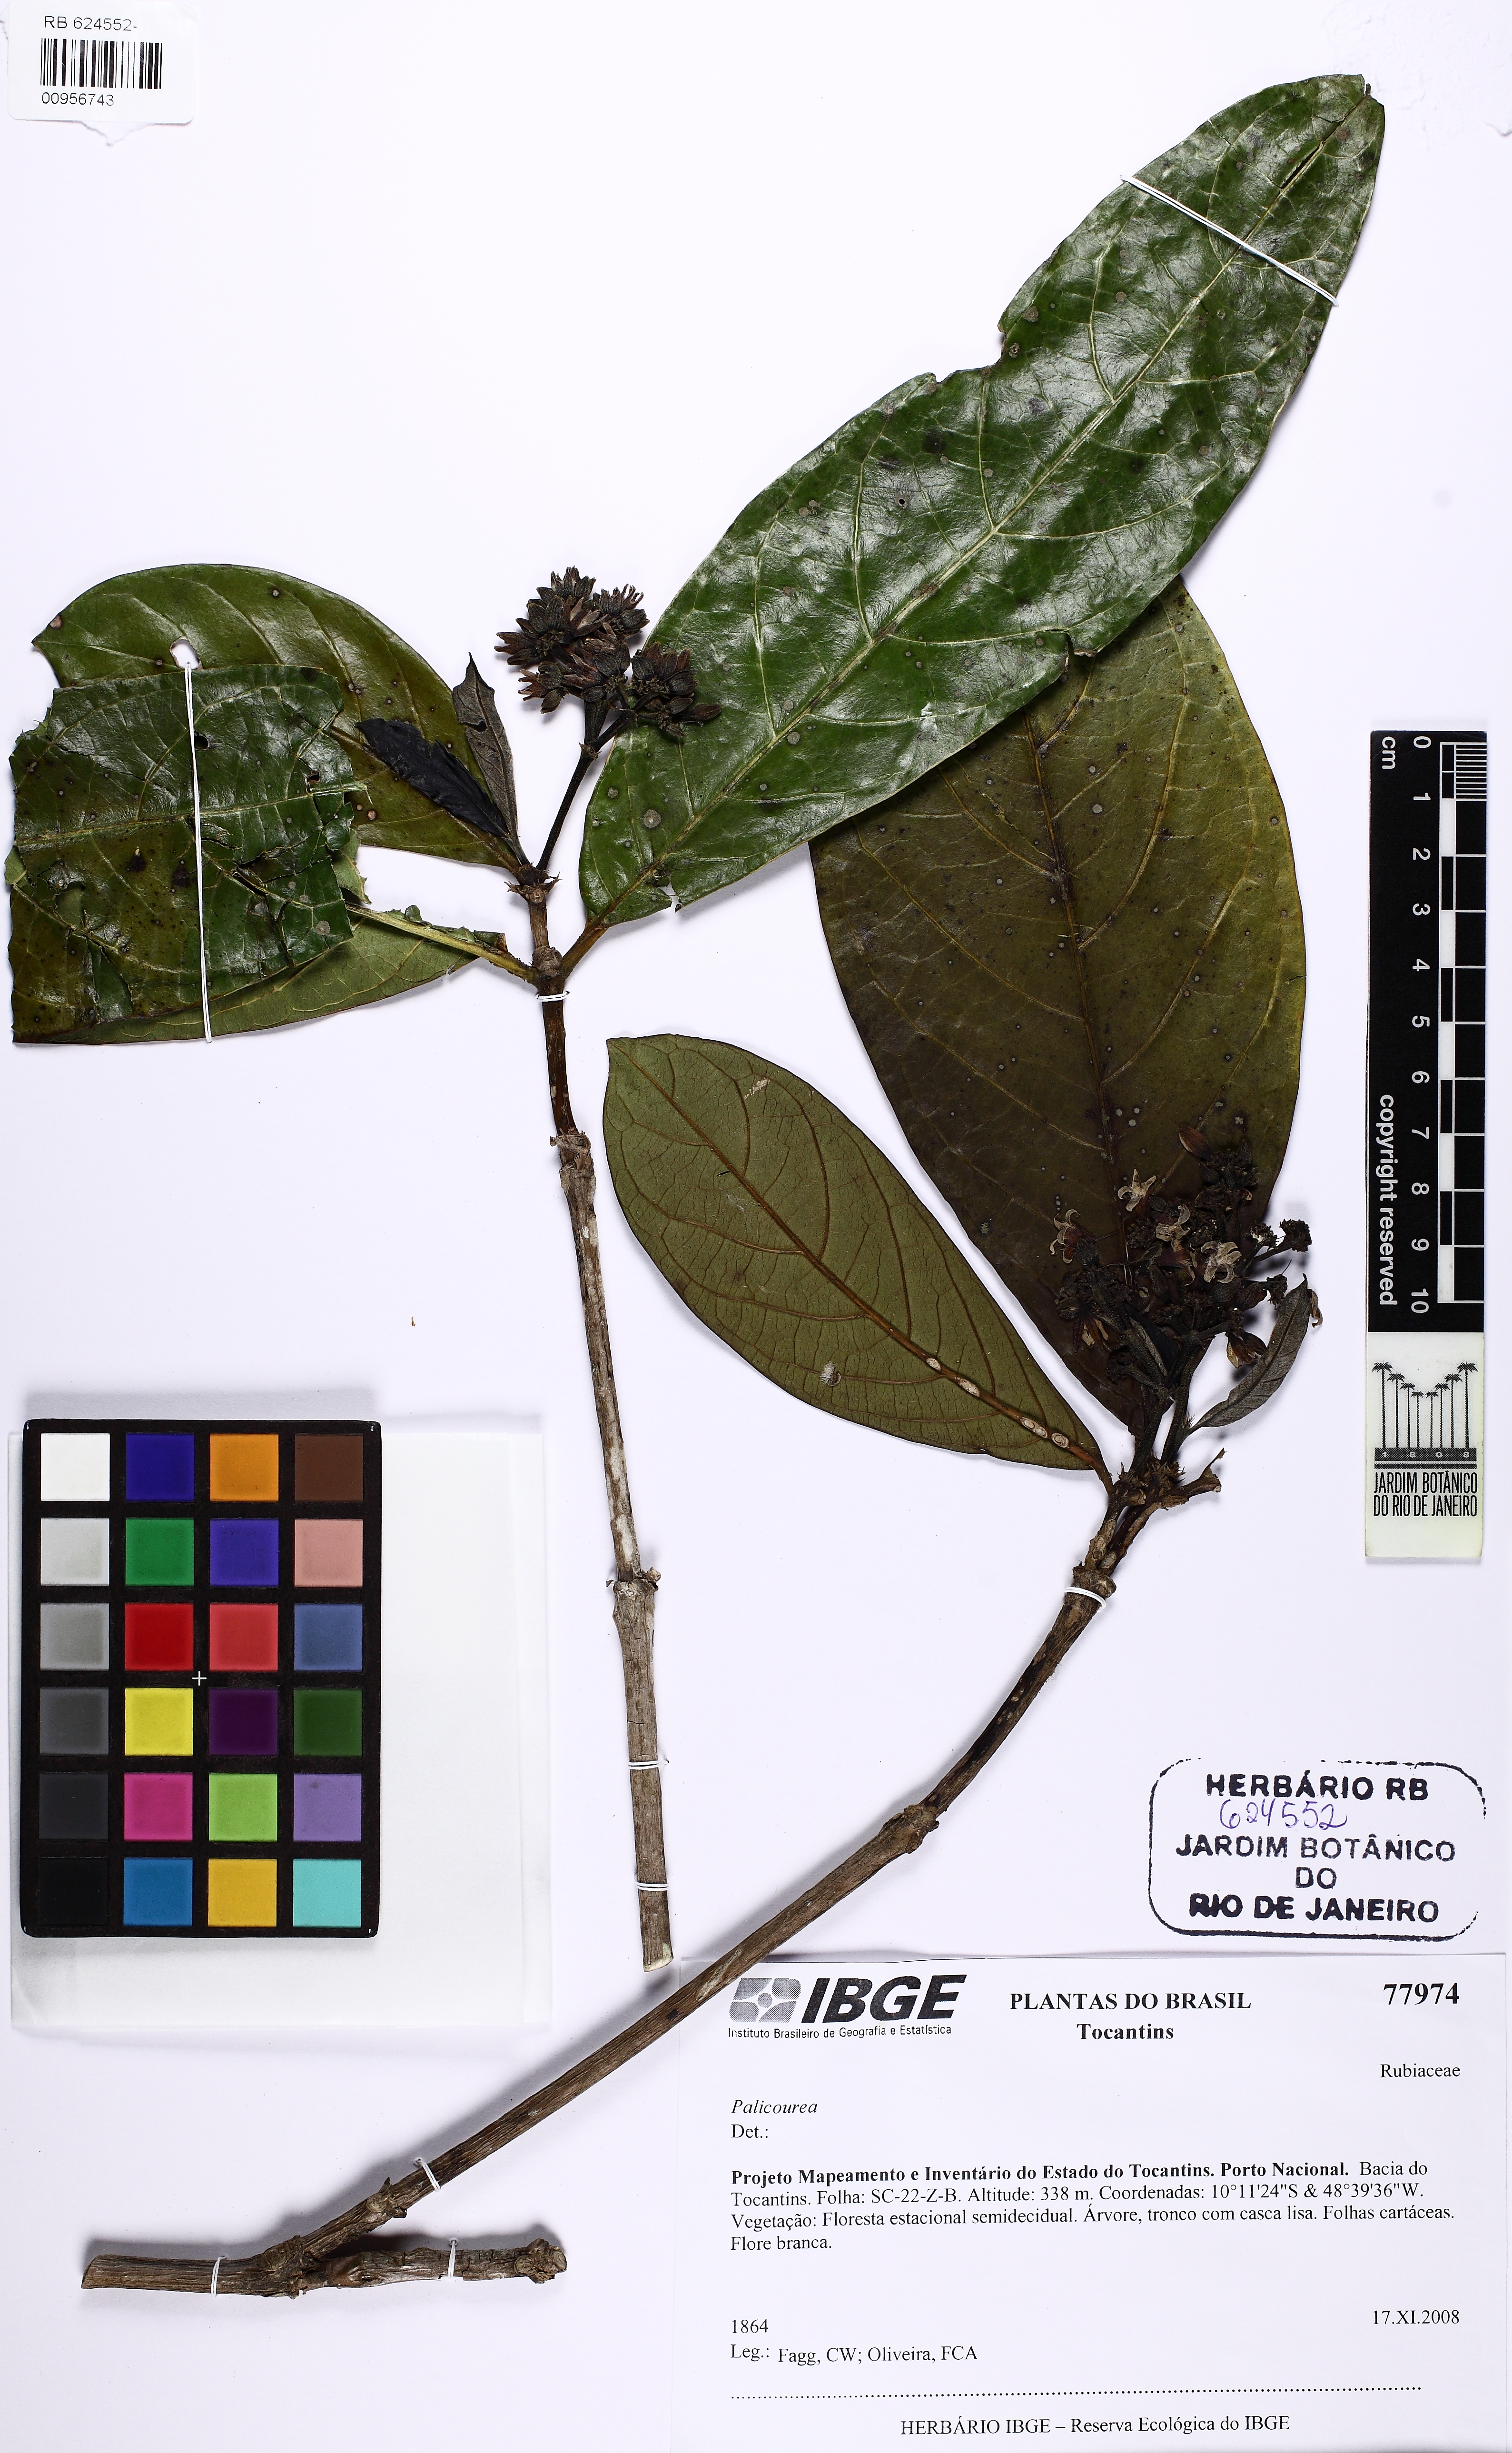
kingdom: Plantae
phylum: Tracheophyta
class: Magnoliopsida
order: Gentianales
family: Rubiaceae
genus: Rudgea
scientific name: Rudgea viburnoides
